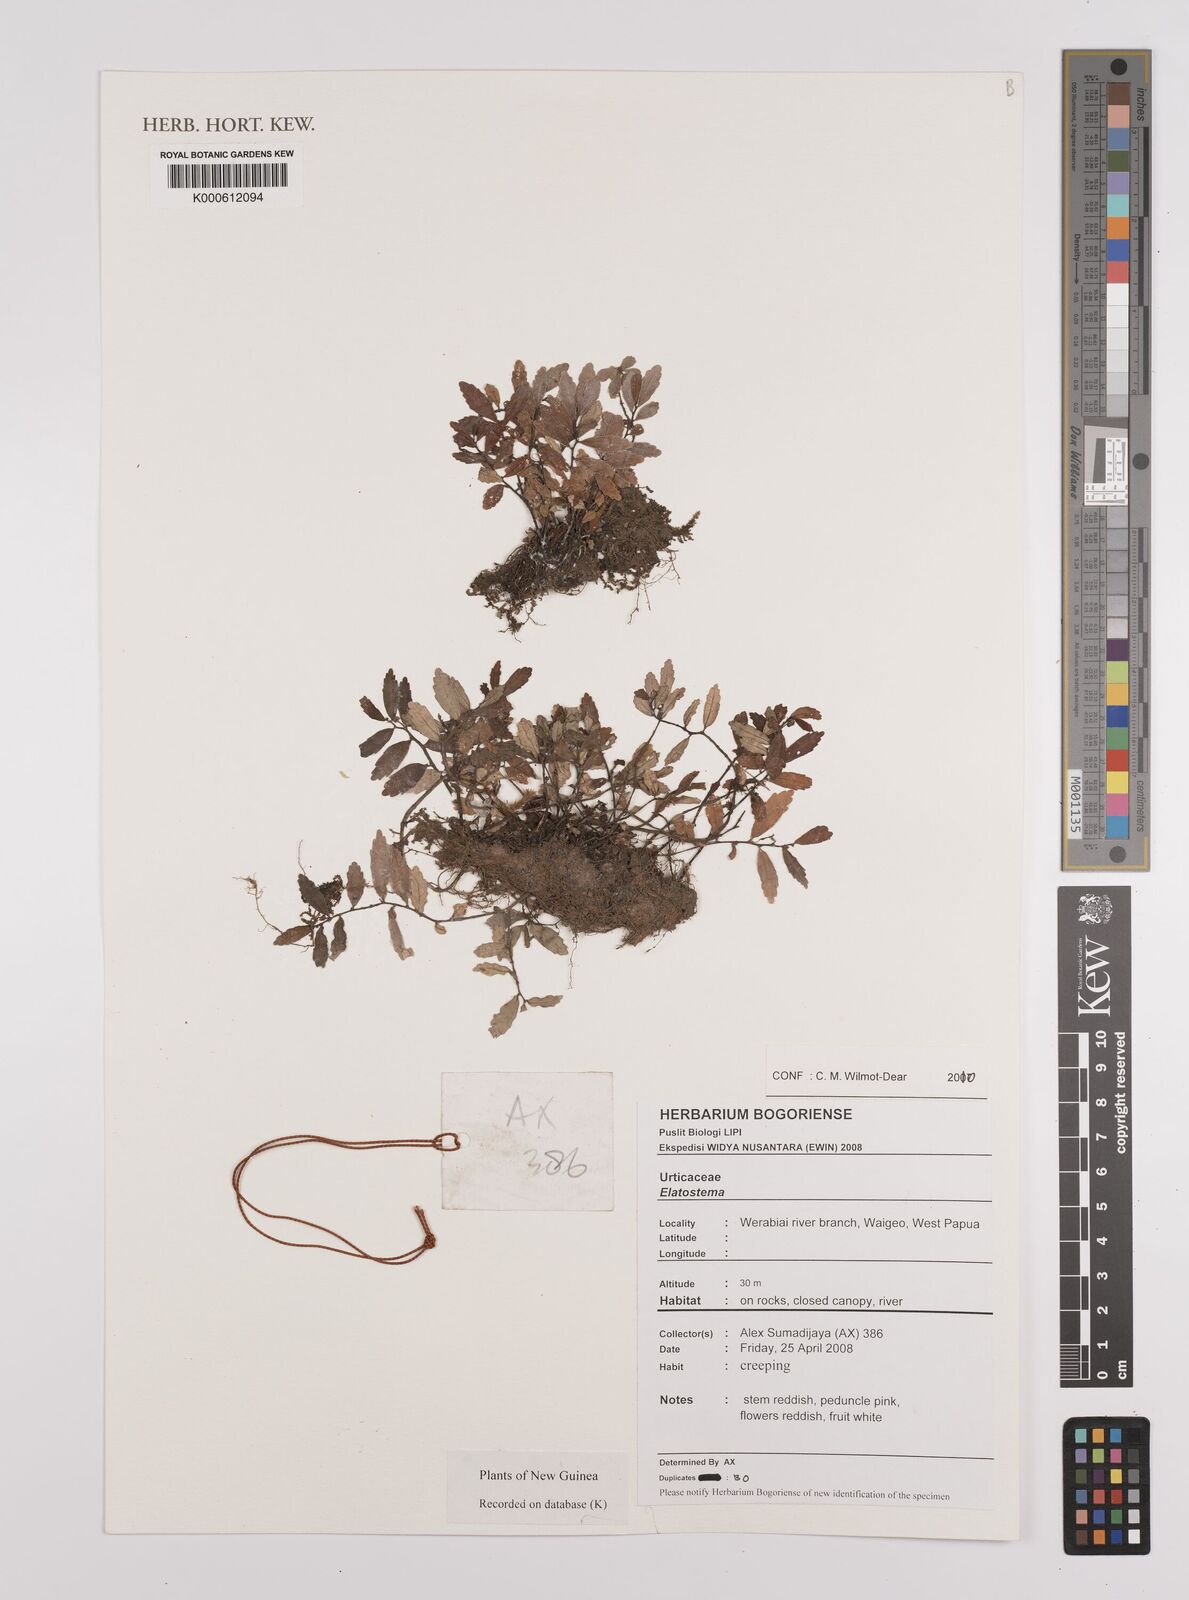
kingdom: Plantae
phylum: Tracheophyta
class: Magnoliopsida
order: Rosales
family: Urticaceae
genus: Elatostema
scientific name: Elatostema
